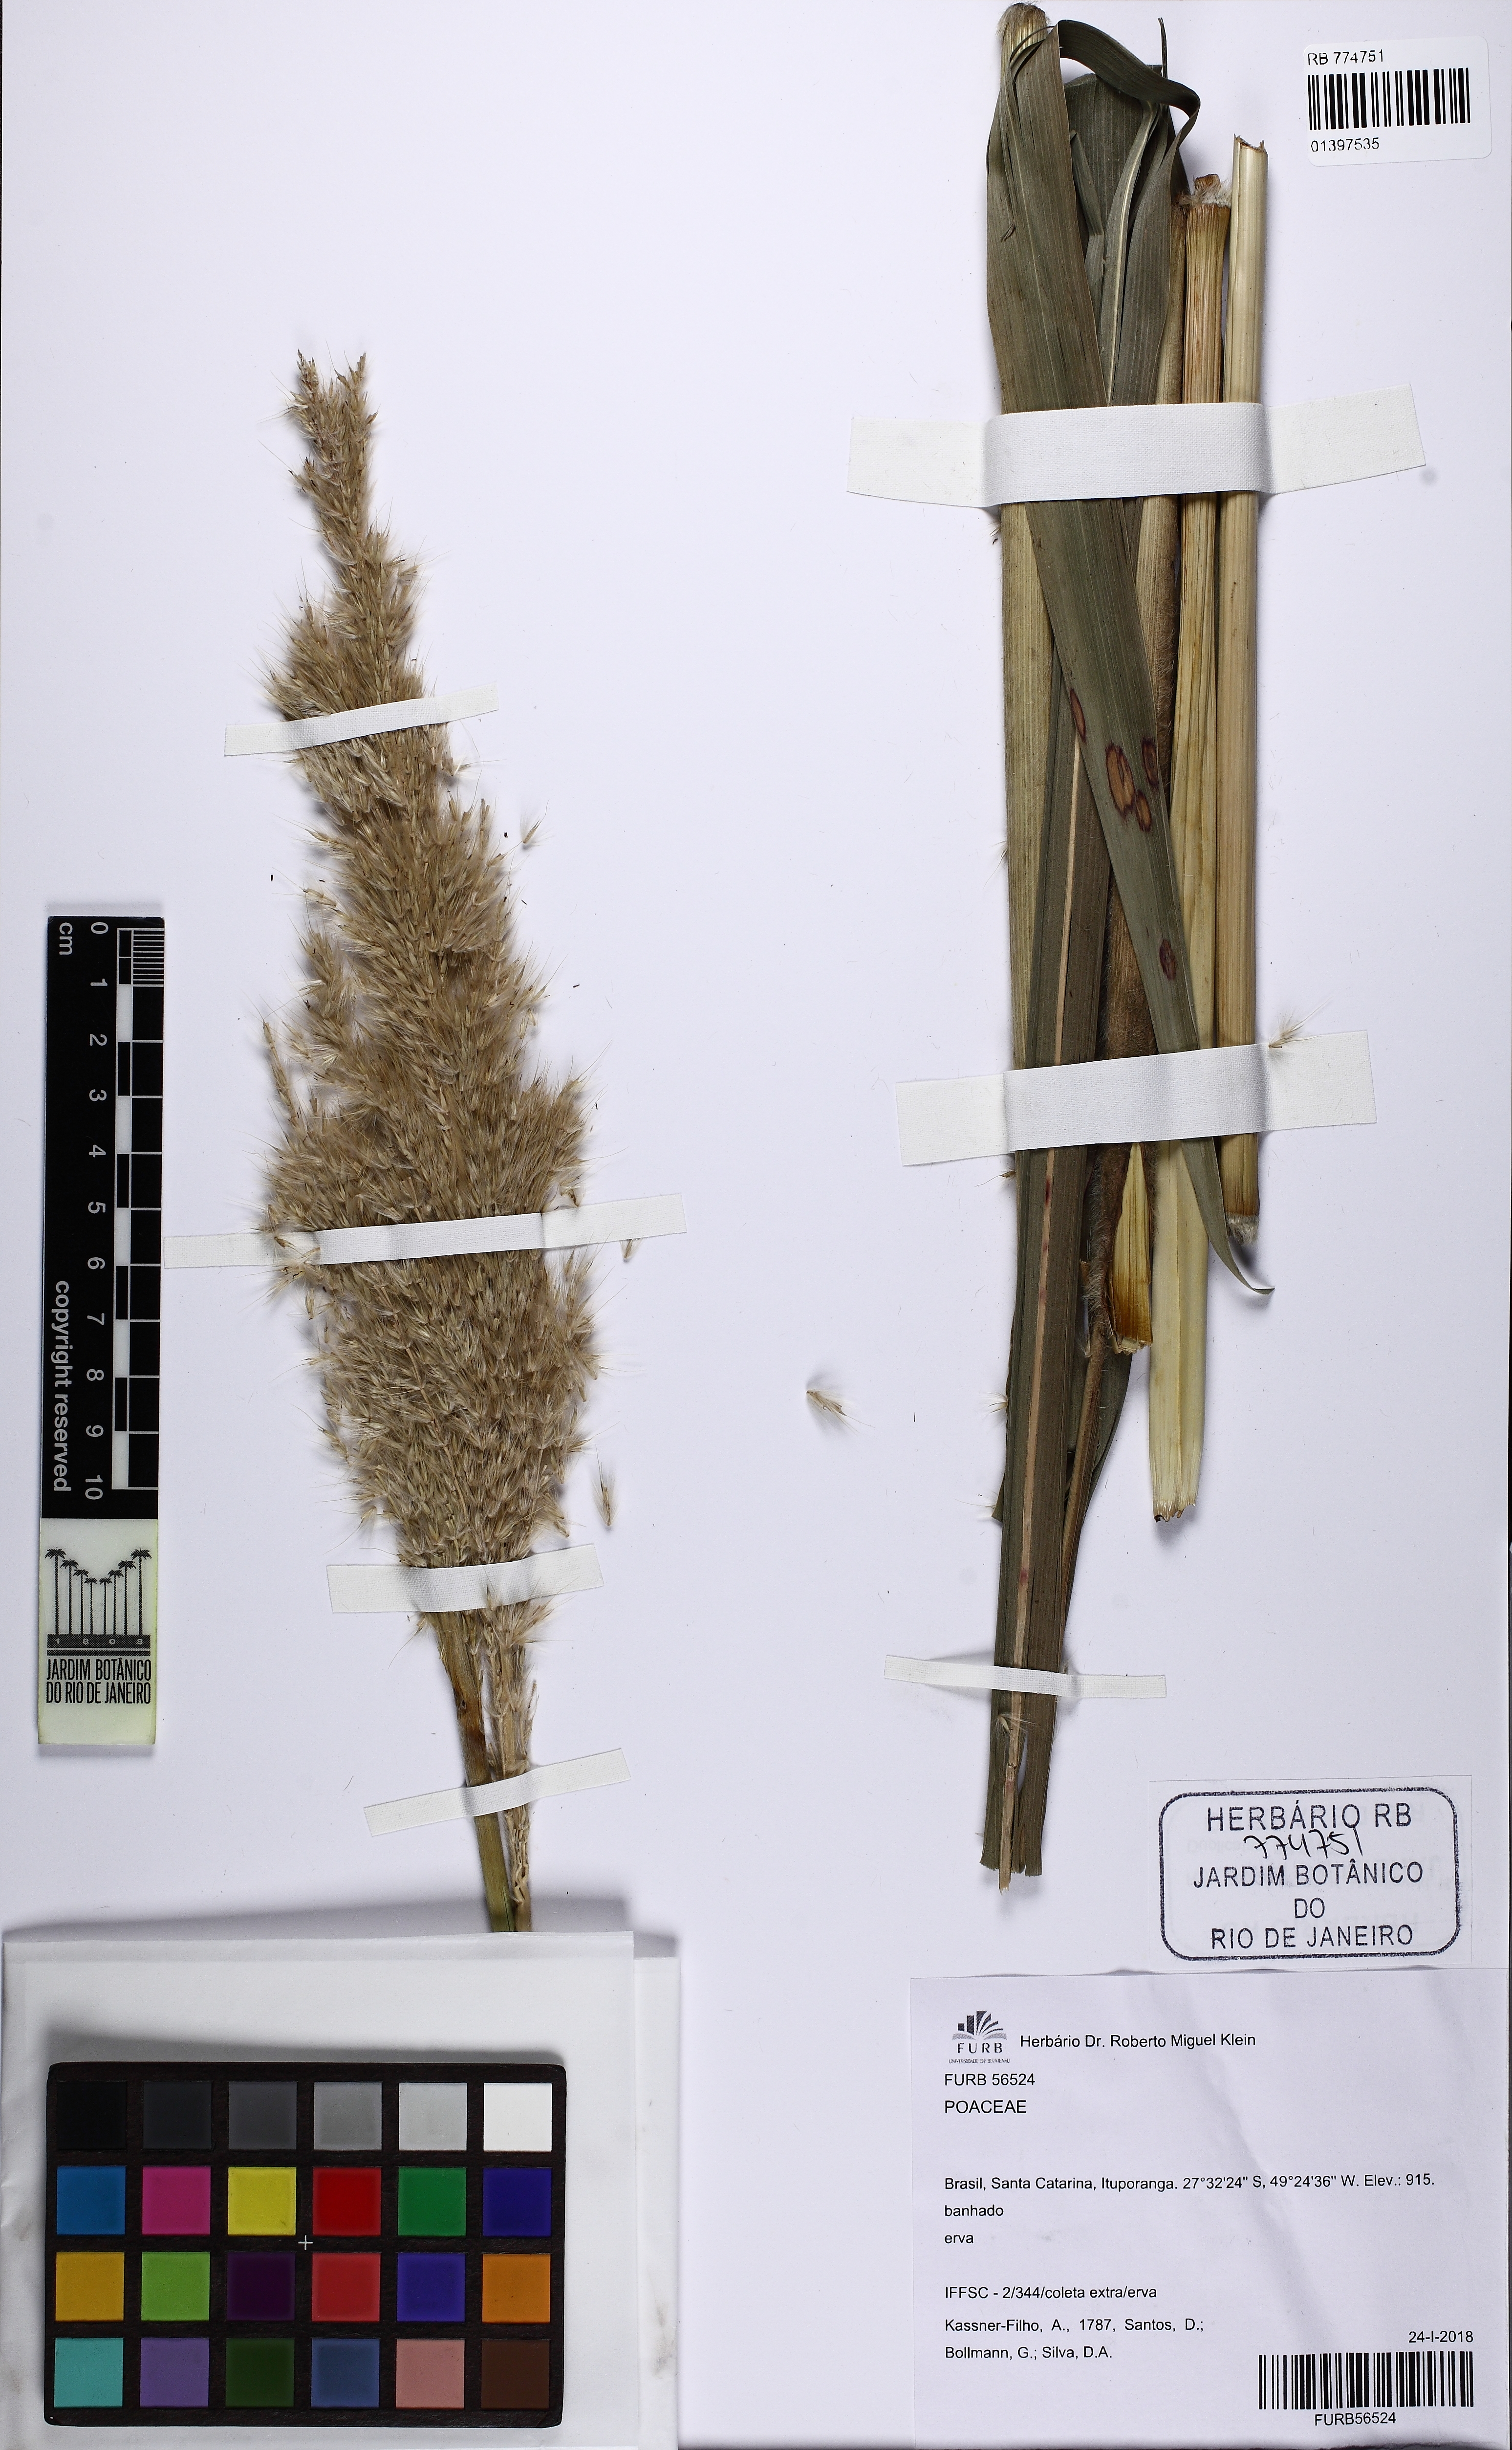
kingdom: Plantae
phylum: Tracheophyta
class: Liliopsida
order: Poales
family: Poaceae
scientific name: Poaceae
